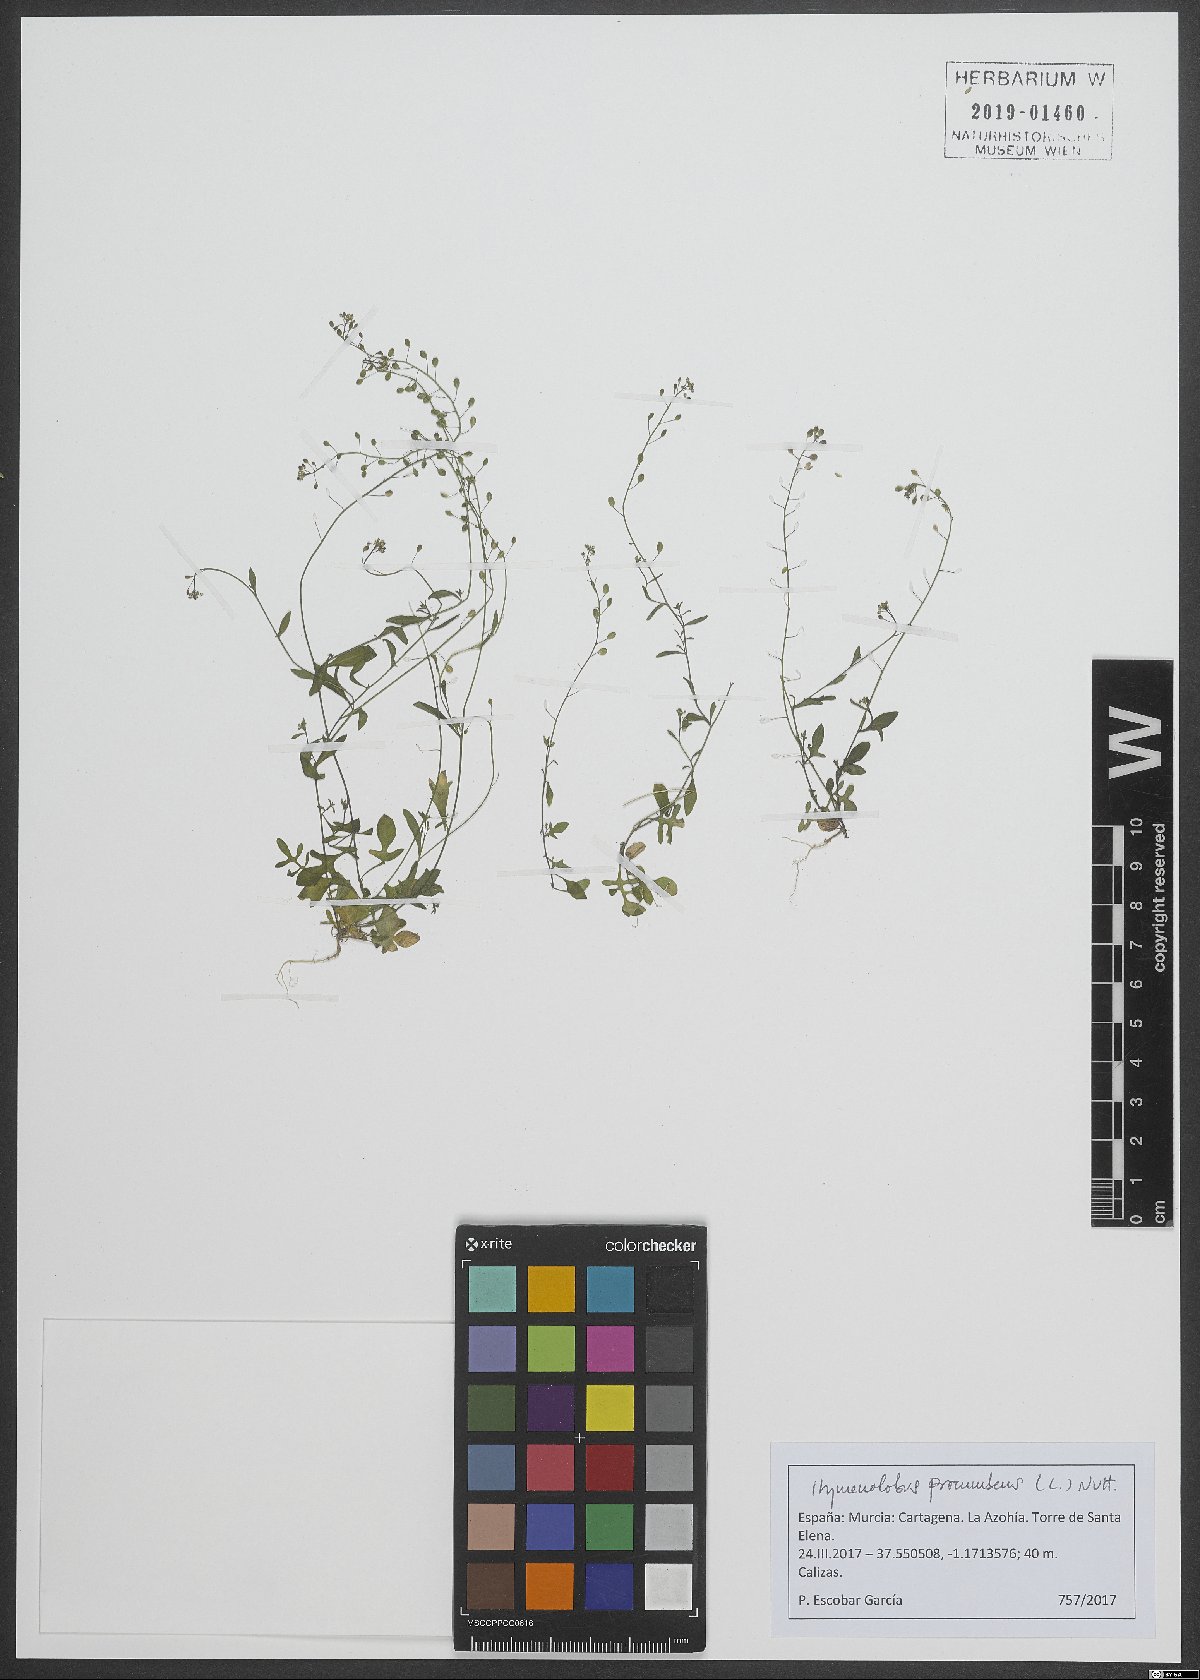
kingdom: Plantae
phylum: Tracheophyta
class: Magnoliopsida
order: Brassicales
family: Brassicaceae
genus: Hornungia
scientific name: Hornungia procumbens
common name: Oval purse
